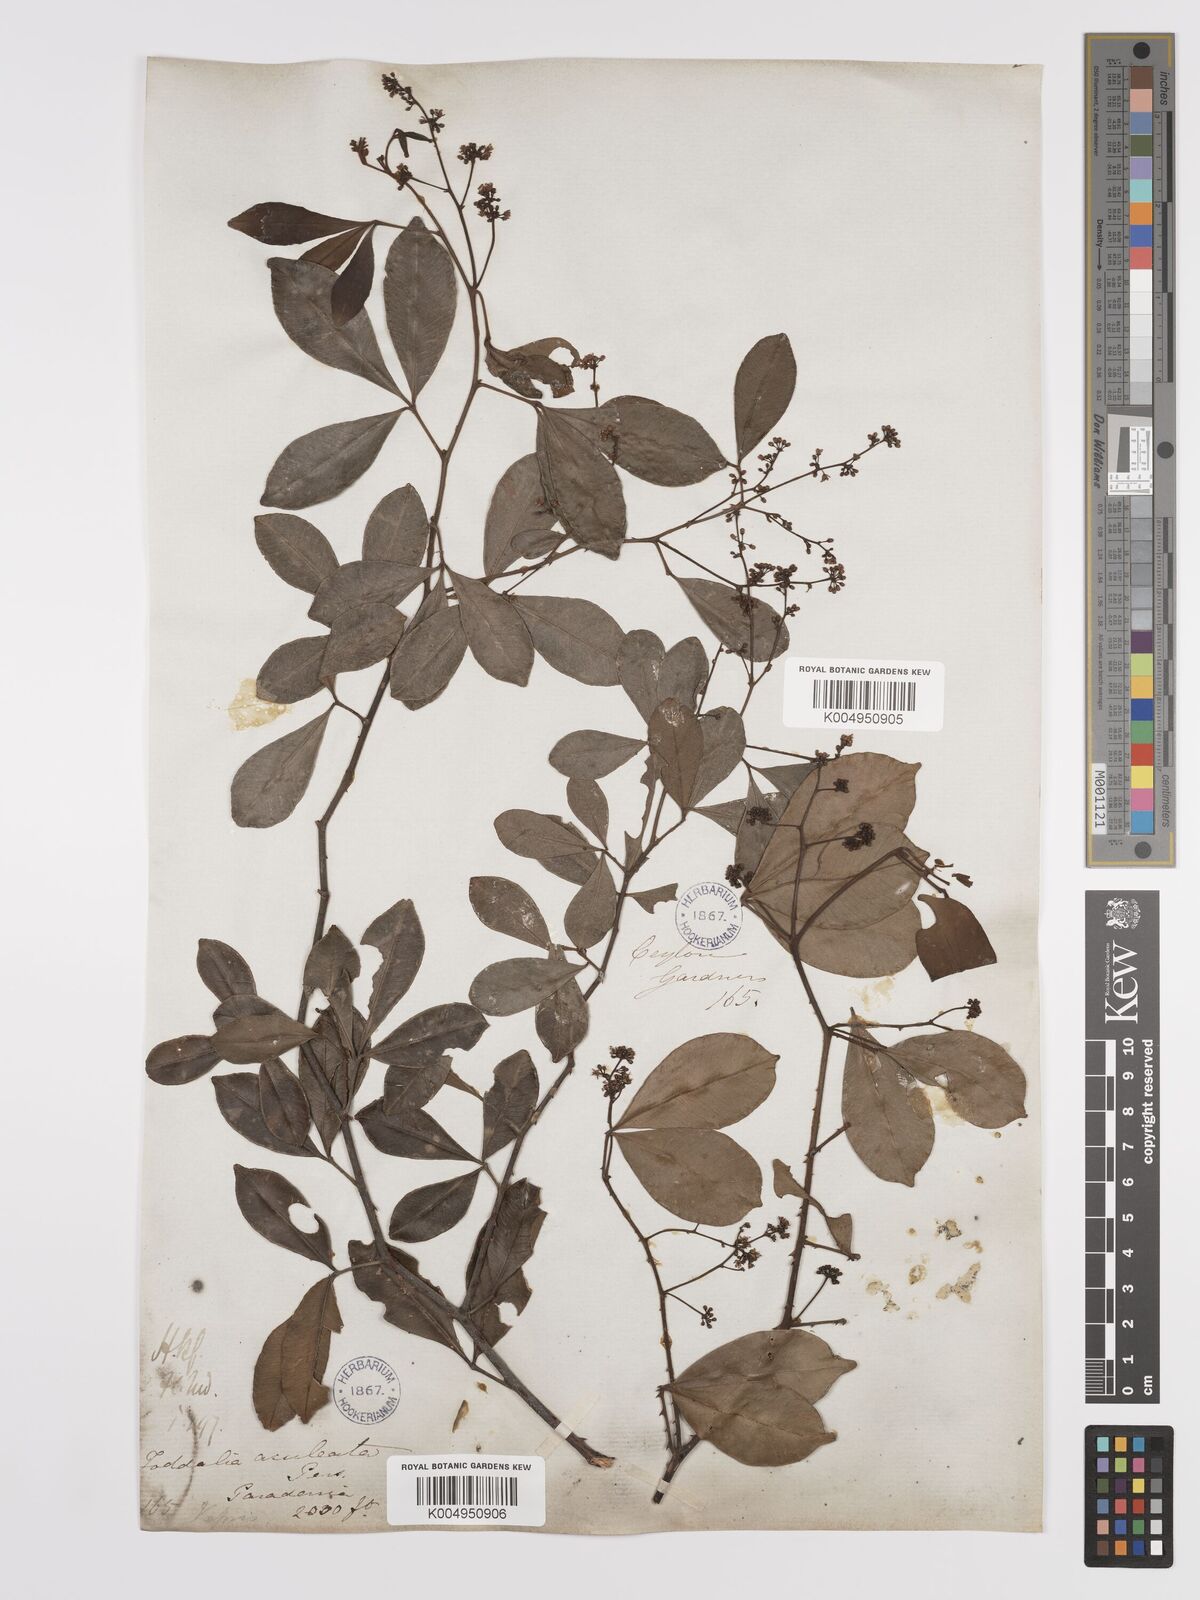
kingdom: Plantae
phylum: Tracheophyta
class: Magnoliopsida
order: Sapindales
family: Rutaceae
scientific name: Rutaceae
